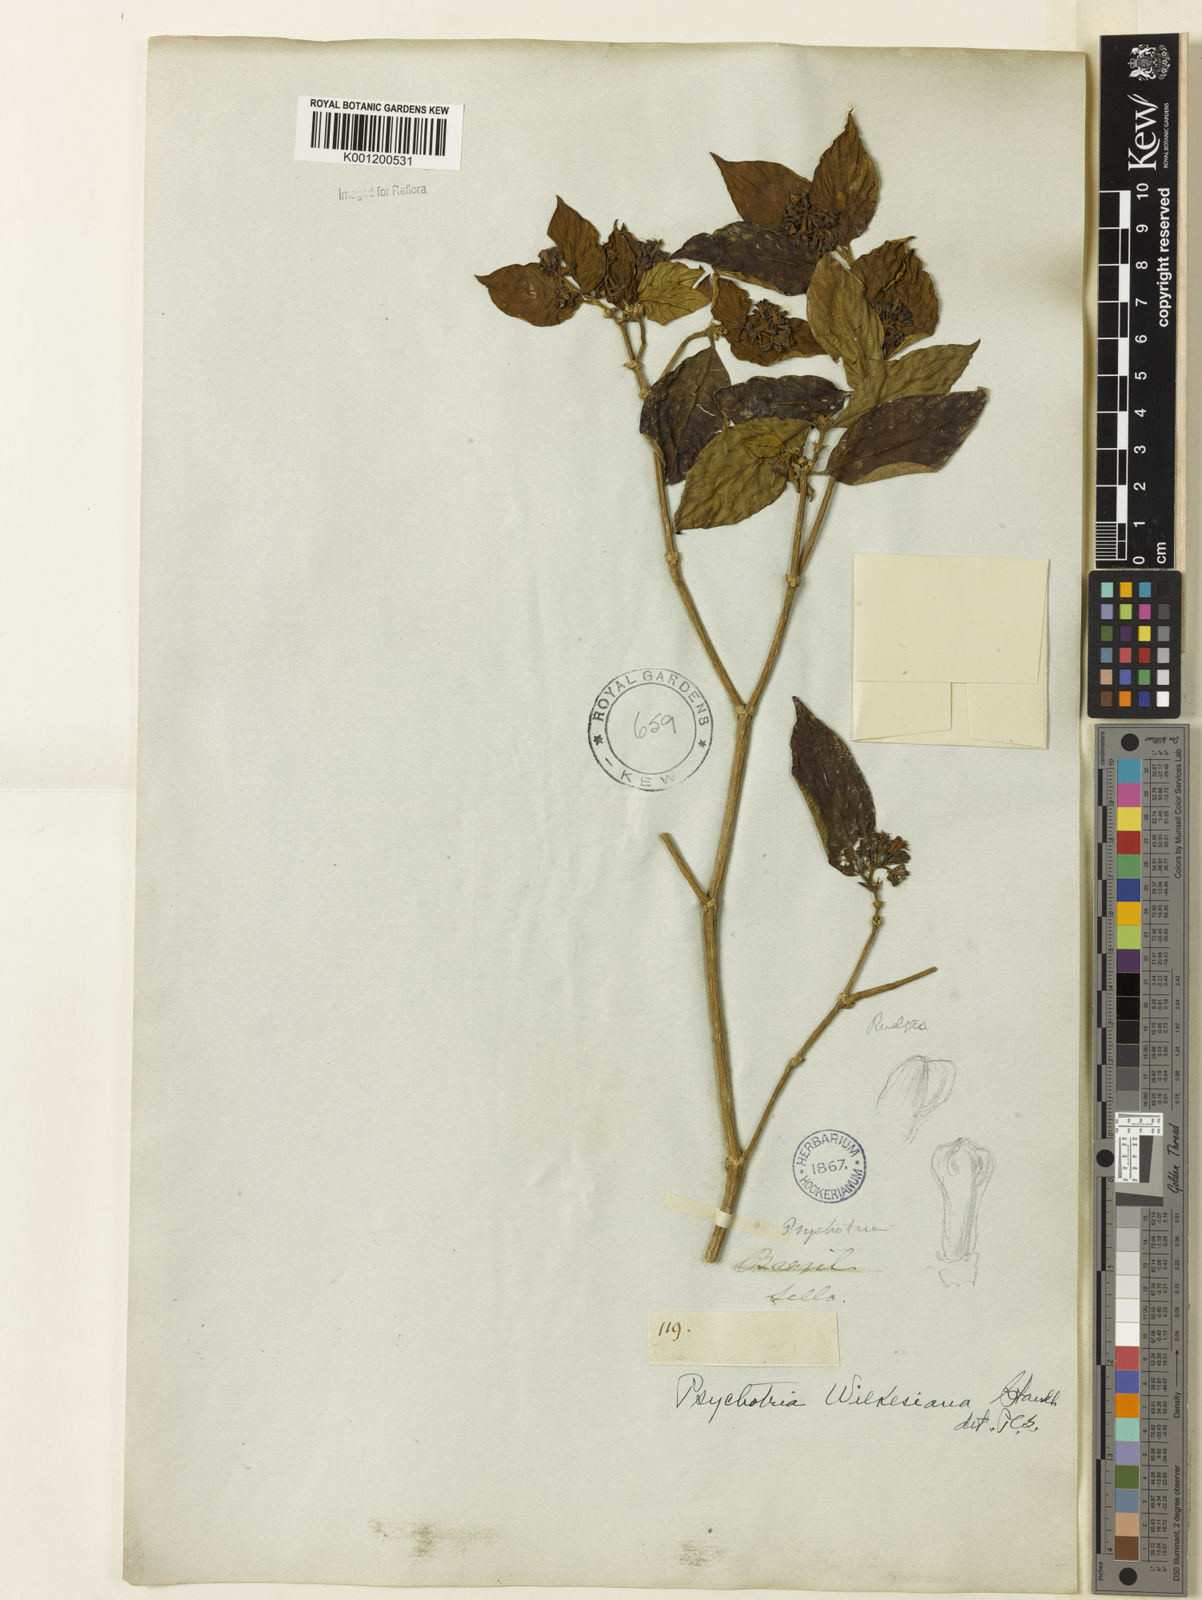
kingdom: Plantae
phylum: Tracheophyta
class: Magnoliopsida
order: Gentianales
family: Rubiaceae
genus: Psychotria
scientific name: Psychotria wilkesiana
